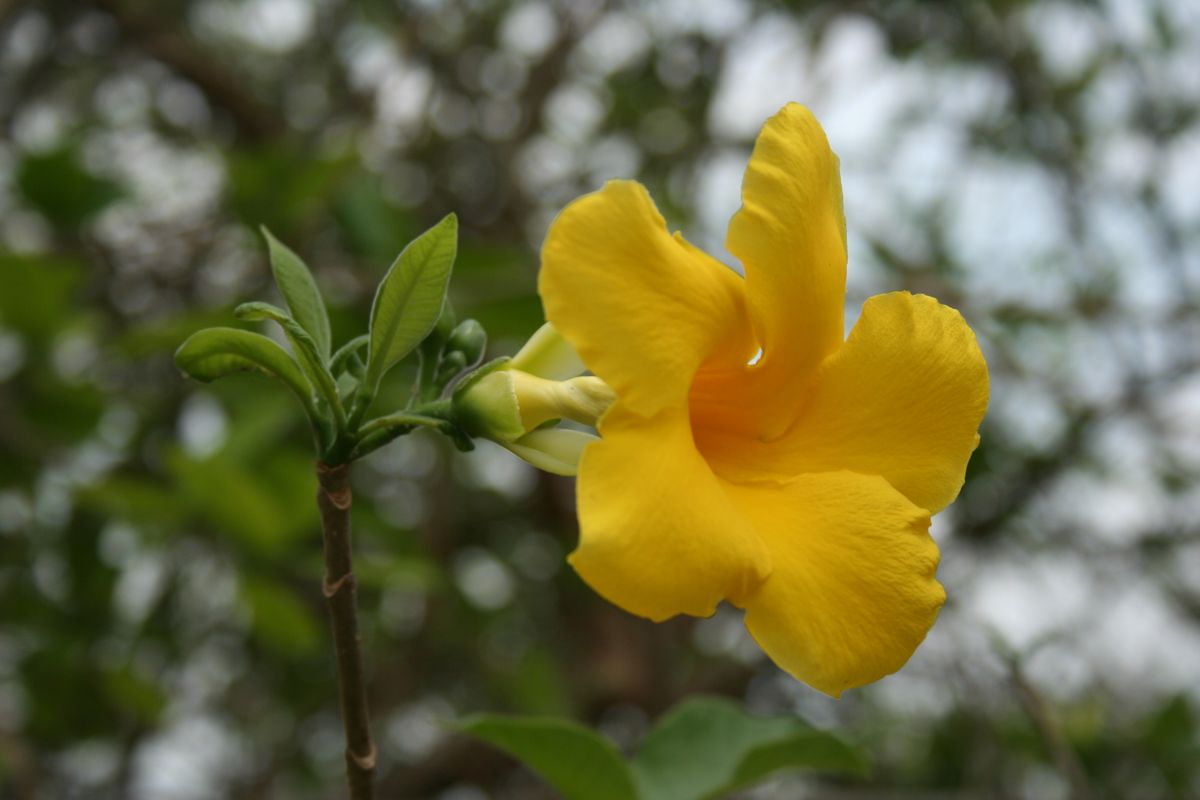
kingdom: Plantae
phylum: Tracheophyta
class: Magnoliopsida
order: Gentianales
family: Apocynaceae
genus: Tabernaemontana
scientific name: Tabernaemontana glabra
